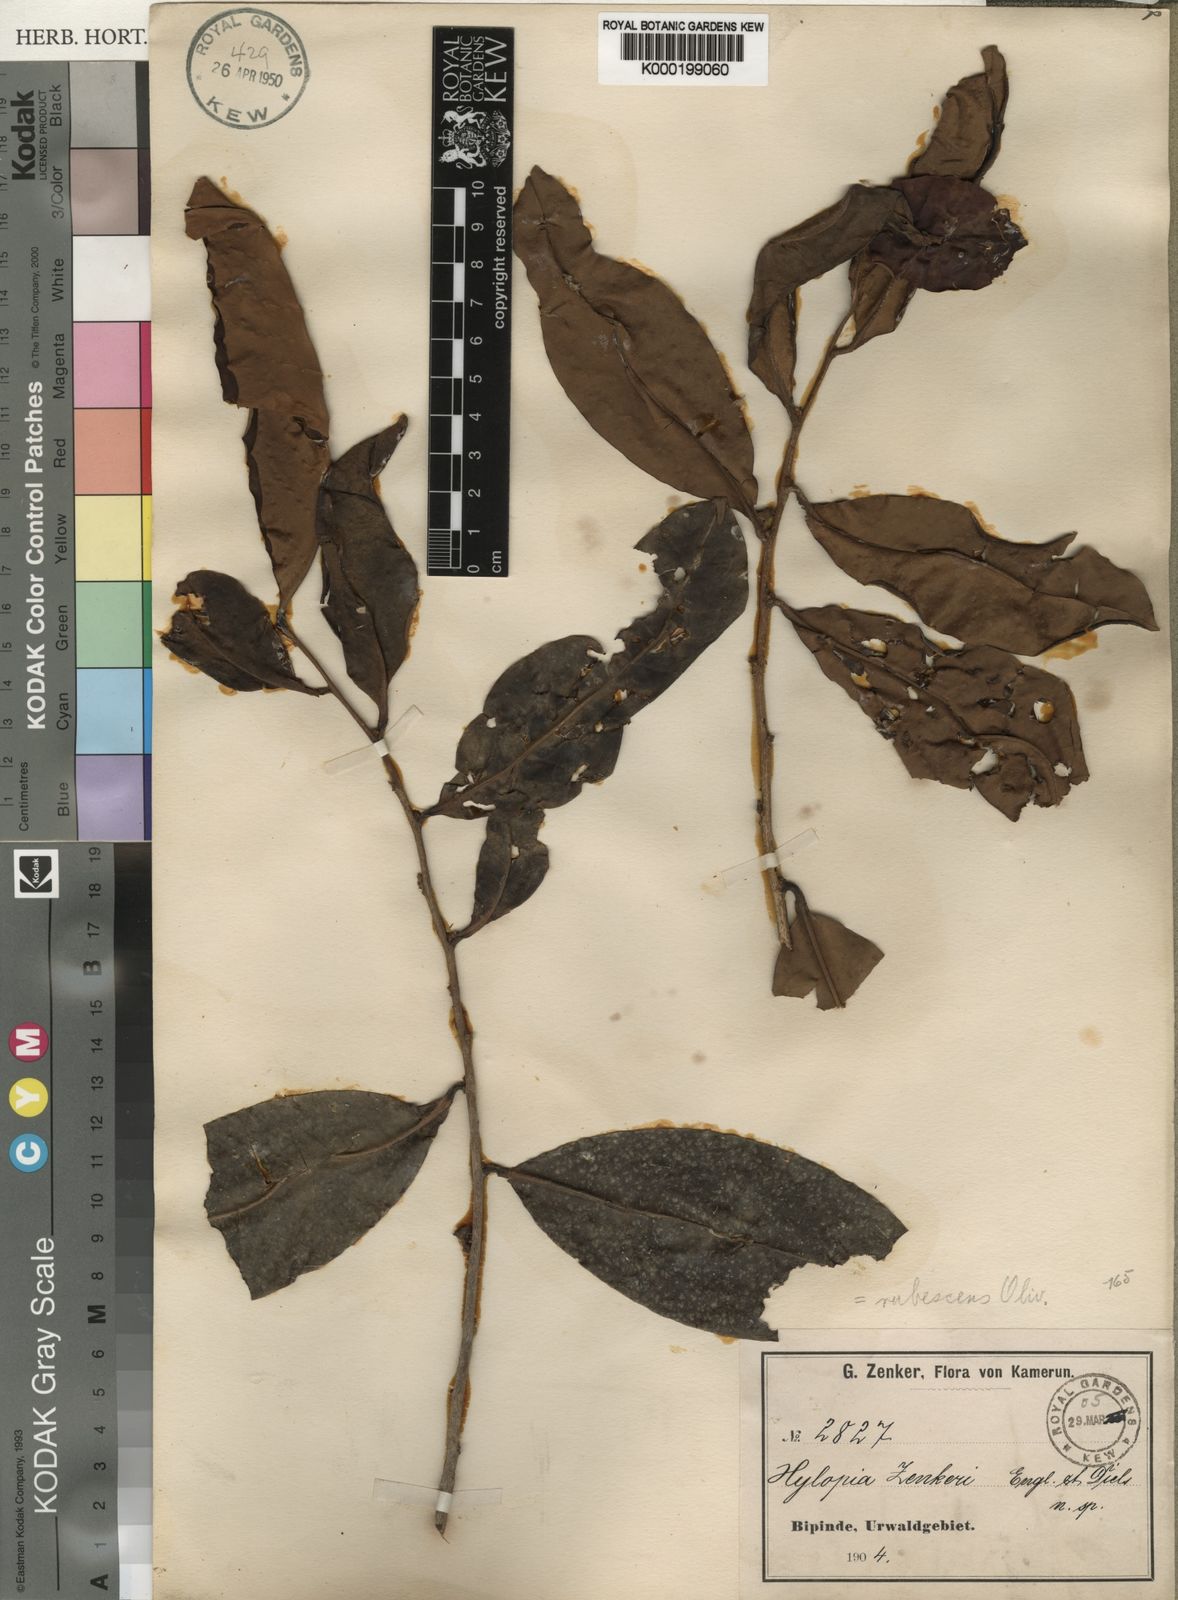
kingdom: Plantae
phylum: Tracheophyta
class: Magnoliopsida
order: Magnoliales
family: Annonaceae
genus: Xylopia
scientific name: Xylopia rubescens
